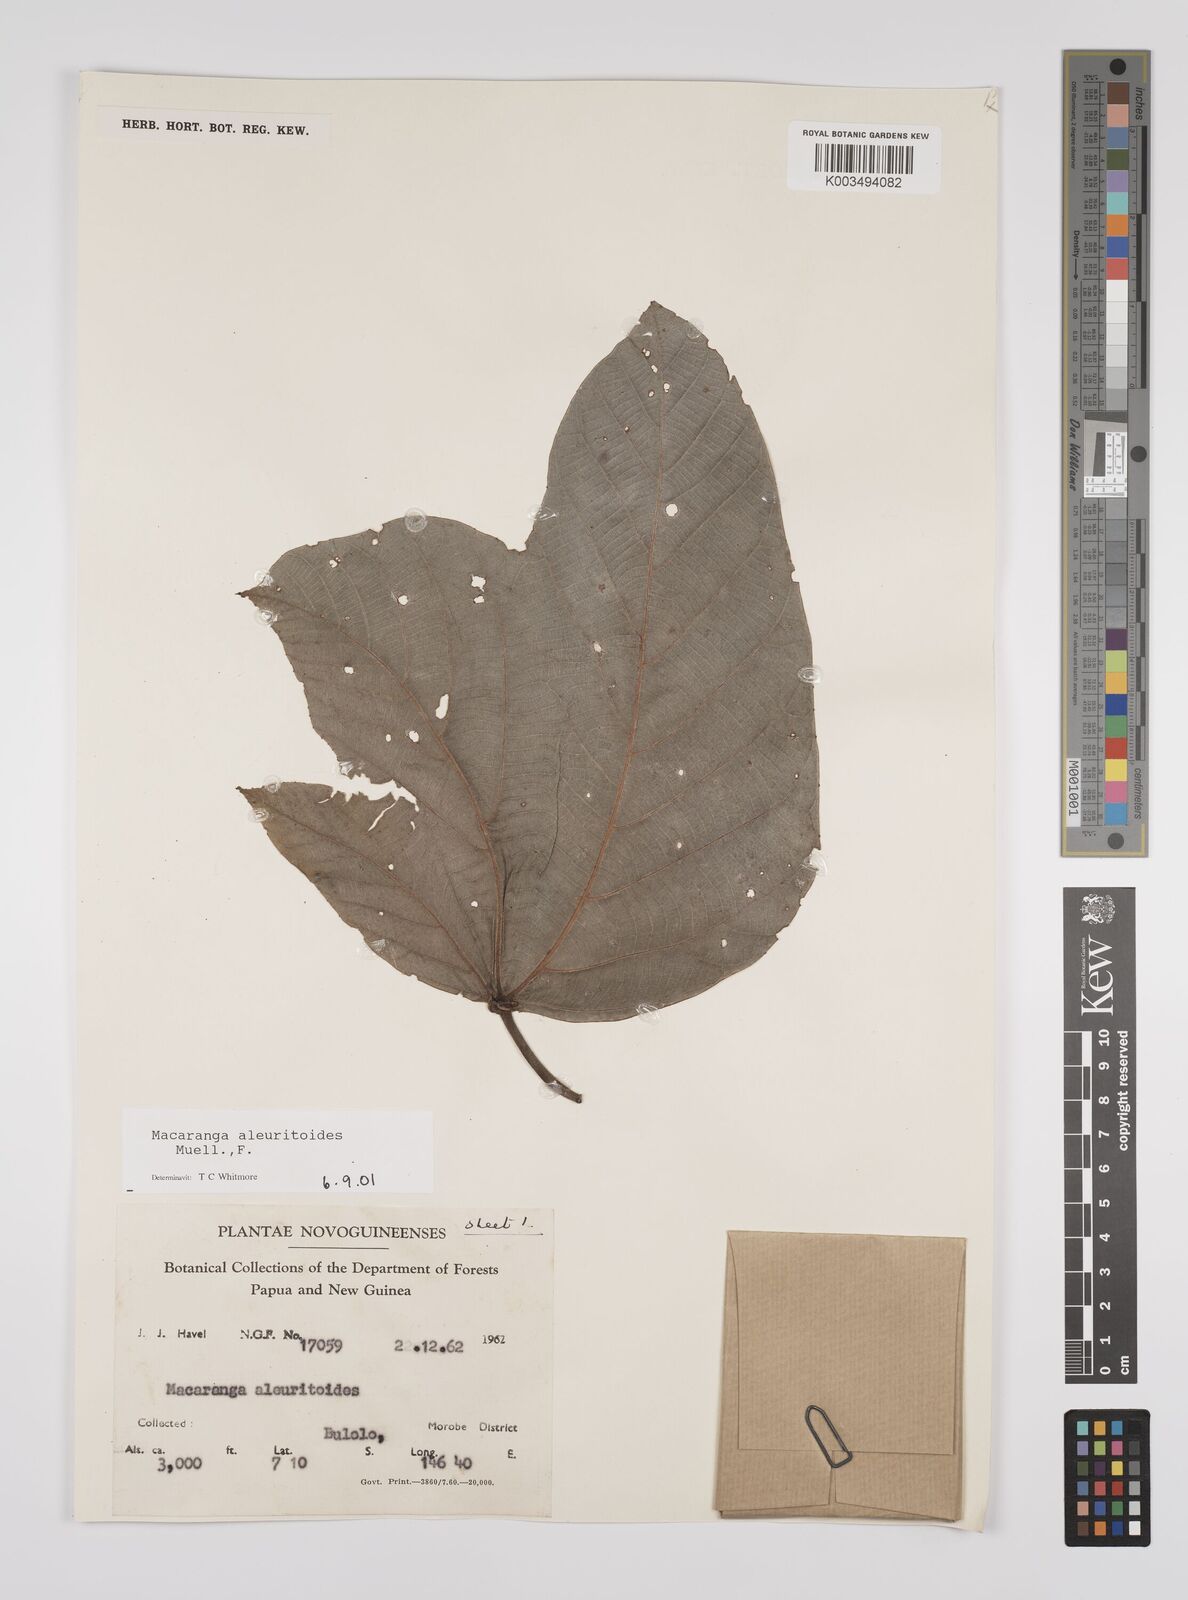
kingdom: Plantae
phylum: Tracheophyta
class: Magnoliopsida
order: Malpighiales
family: Euphorbiaceae
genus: Macaranga
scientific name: Macaranga aleuritoides
